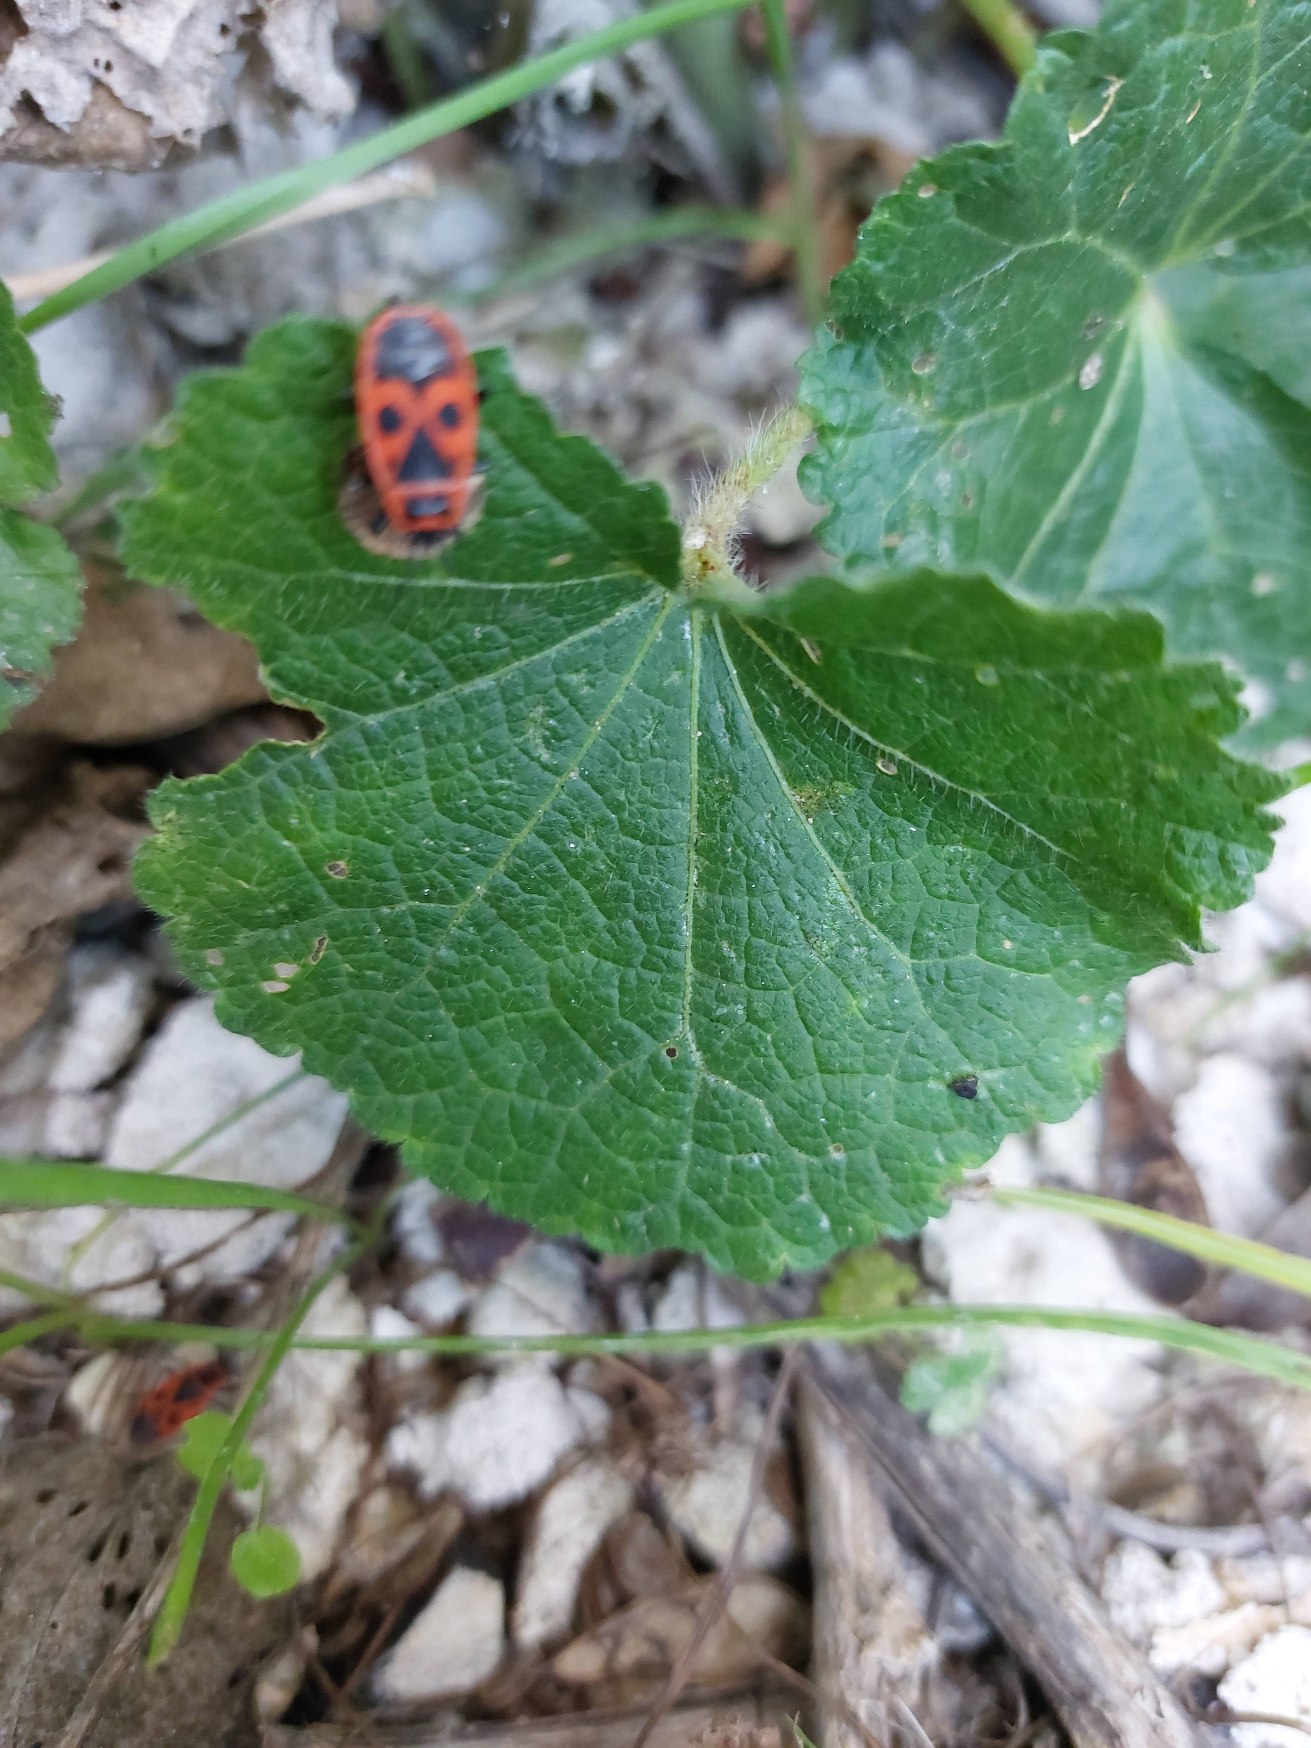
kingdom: Animalia
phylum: Arthropoda
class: Insecta
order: Hemiptera
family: Pyrrhocoridae
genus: Pyrrhocoris
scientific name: Pyrrhocoris apterus
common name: Ildtæge
